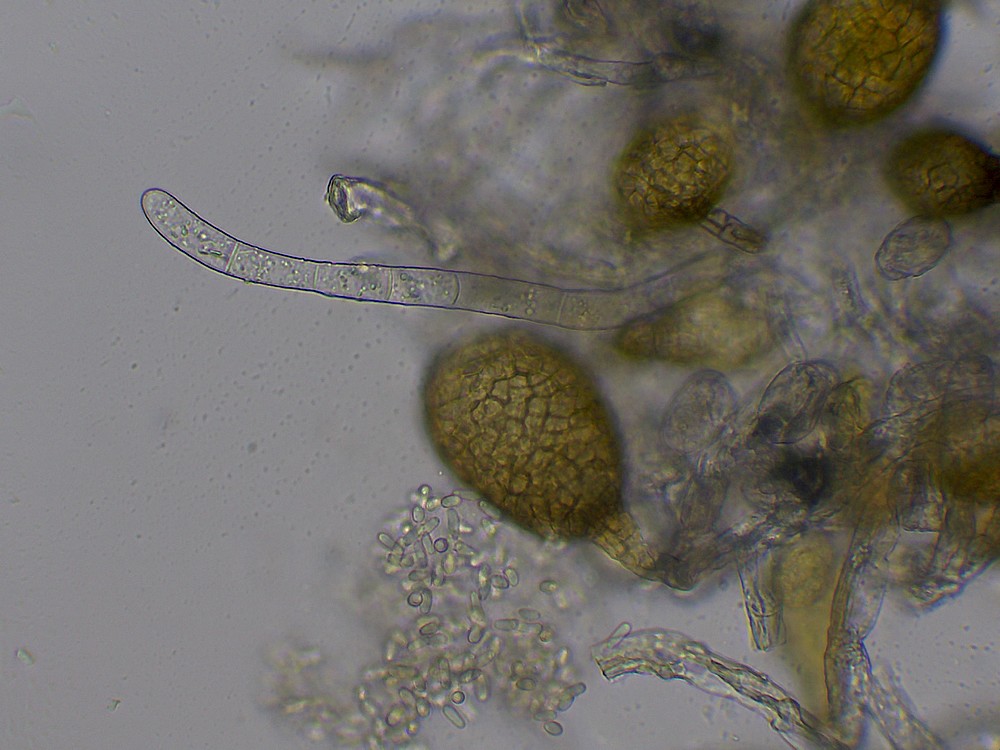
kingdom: Fungi
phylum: Ascomycota
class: Dothideomycetes
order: Pleosporales
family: Phaeosphaeriaceae
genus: Ampelomyces
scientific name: Ampelomyces quisqualis
